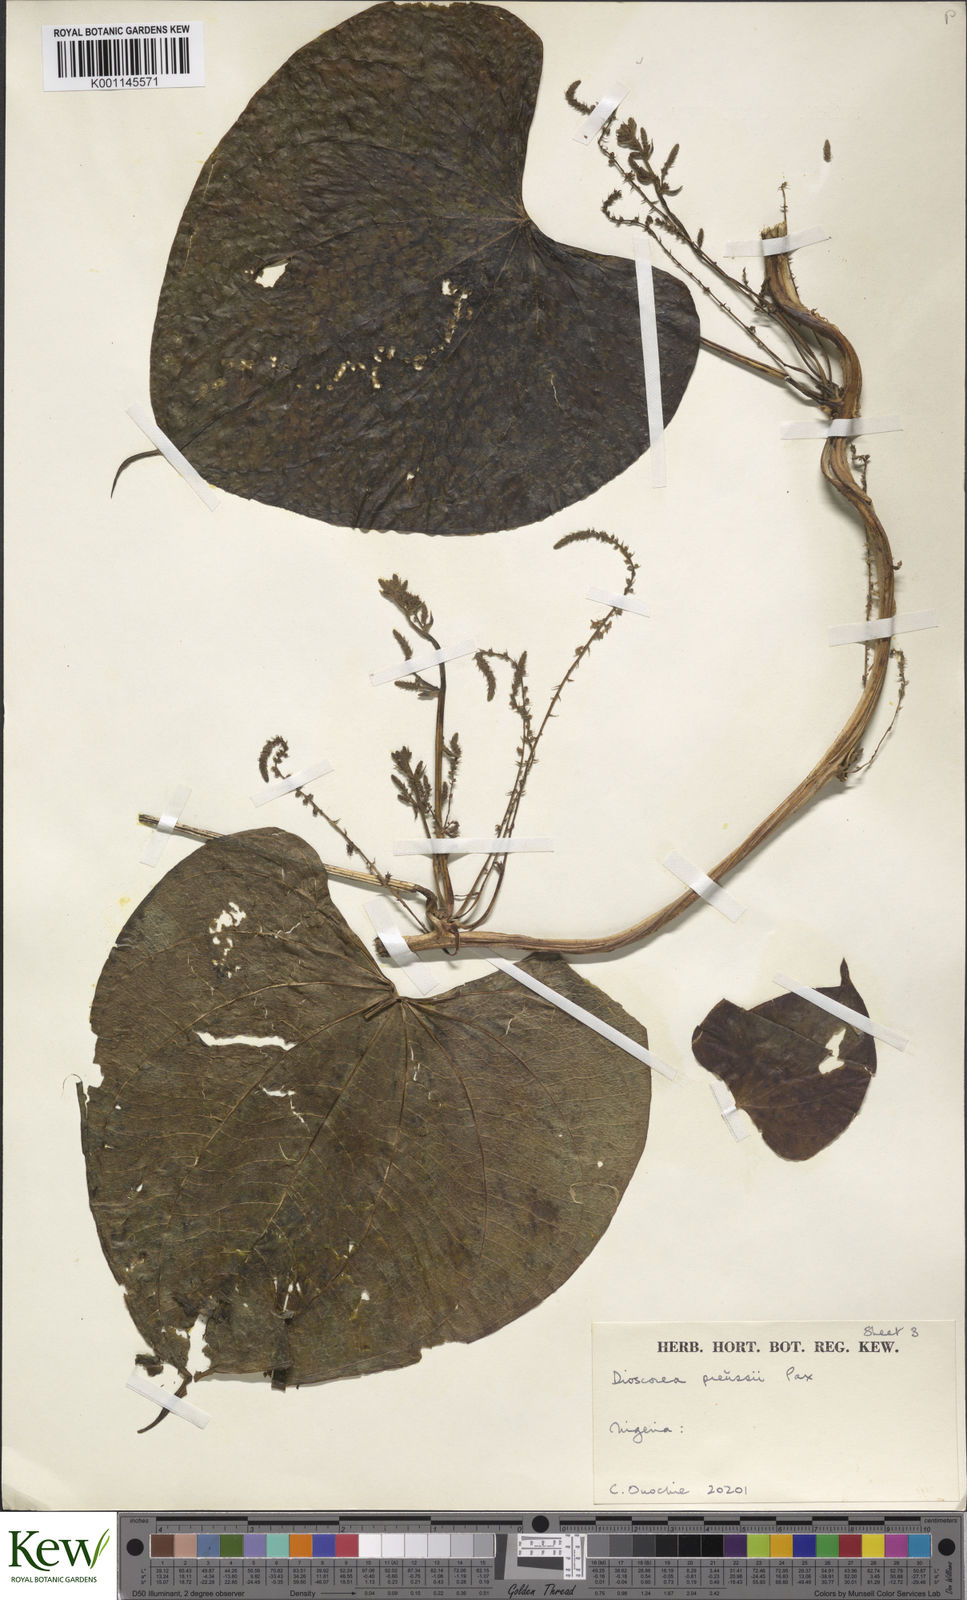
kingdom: Plantae
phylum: Tracheophyta
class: Liliopsida
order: Dioscoreales
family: Dioscoreaceae
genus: Dioscorea
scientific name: Dioscorea preussii
